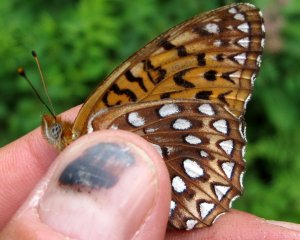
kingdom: Animalia
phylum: Arthropoda
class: Insecta
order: Lepidoptera
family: Nymphalidae
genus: Speyeria
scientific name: Speyeria atlantis
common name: Atlantis Fritillary
